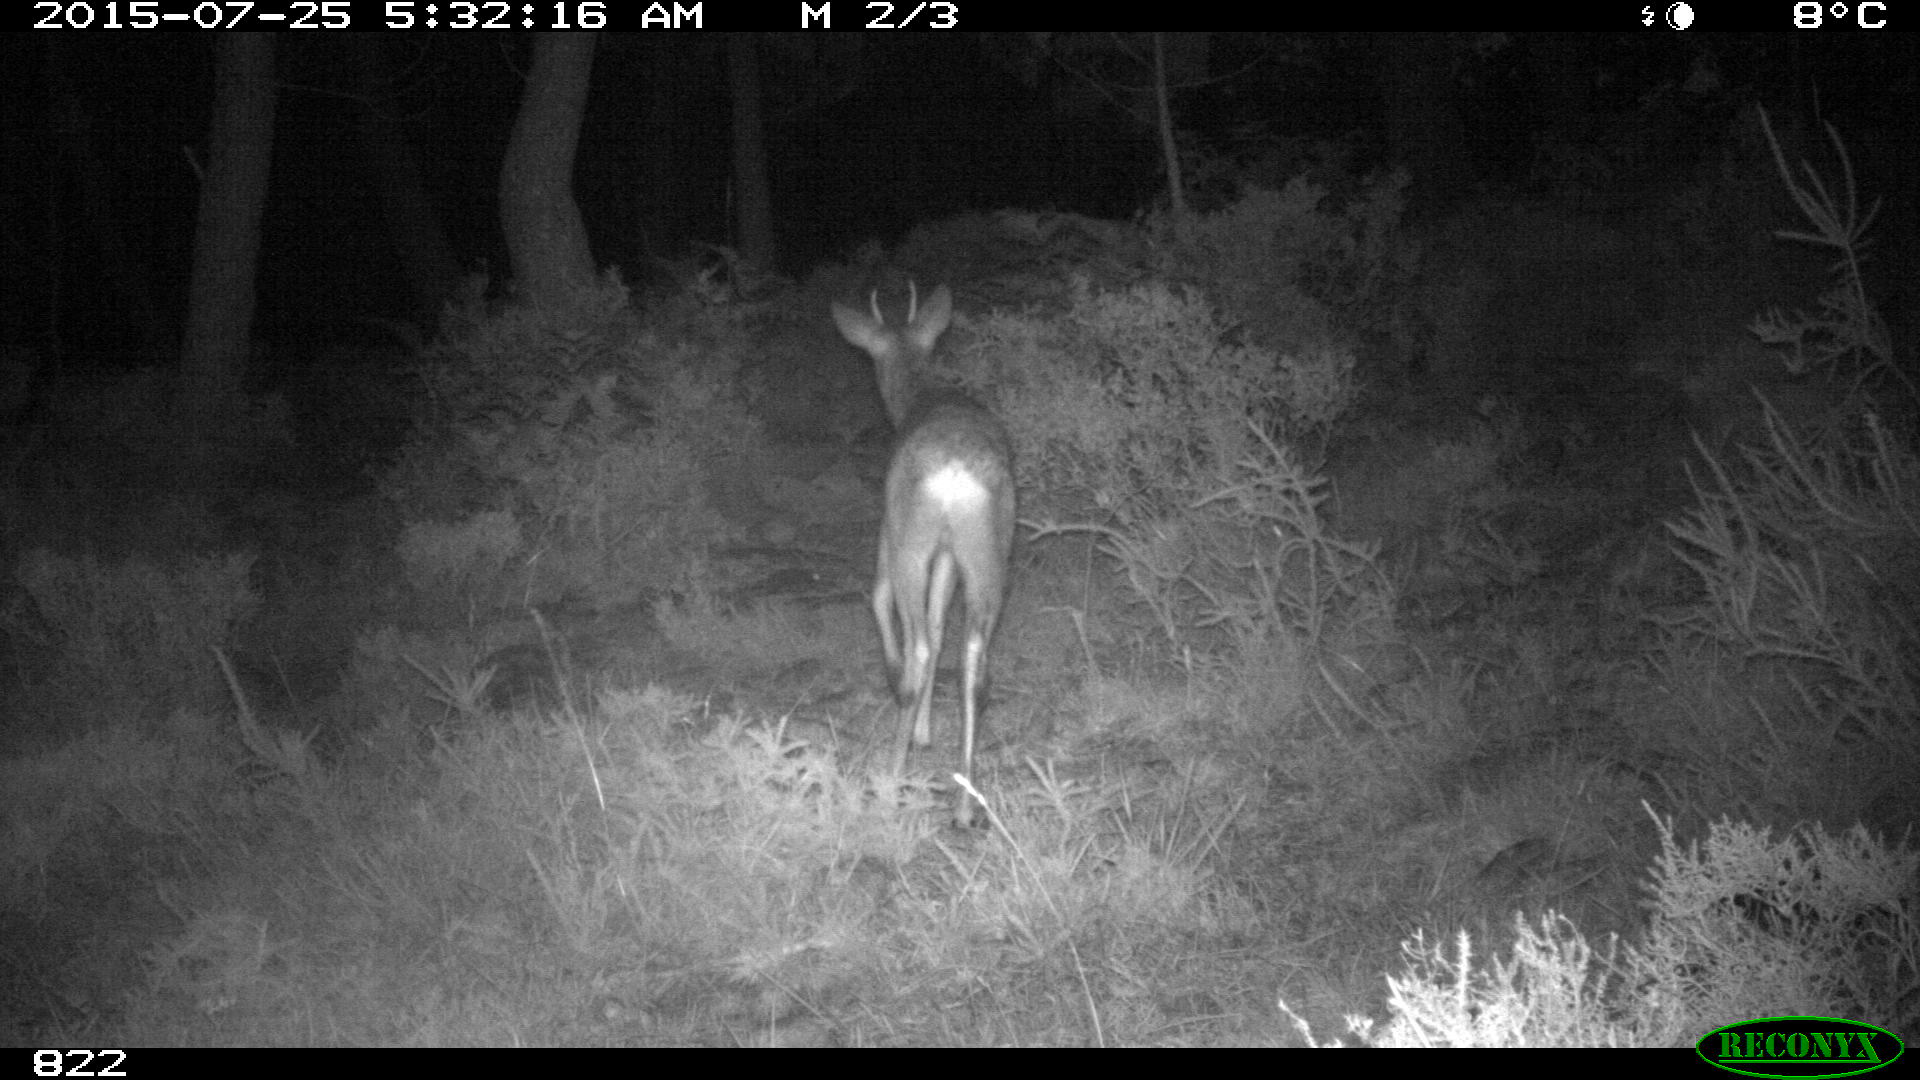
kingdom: Animalia
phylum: Chordata
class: Mammalia
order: Artiodactyla
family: Cervidae
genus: Capreolus
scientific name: Capreolus capreolus
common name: Western roe deer
